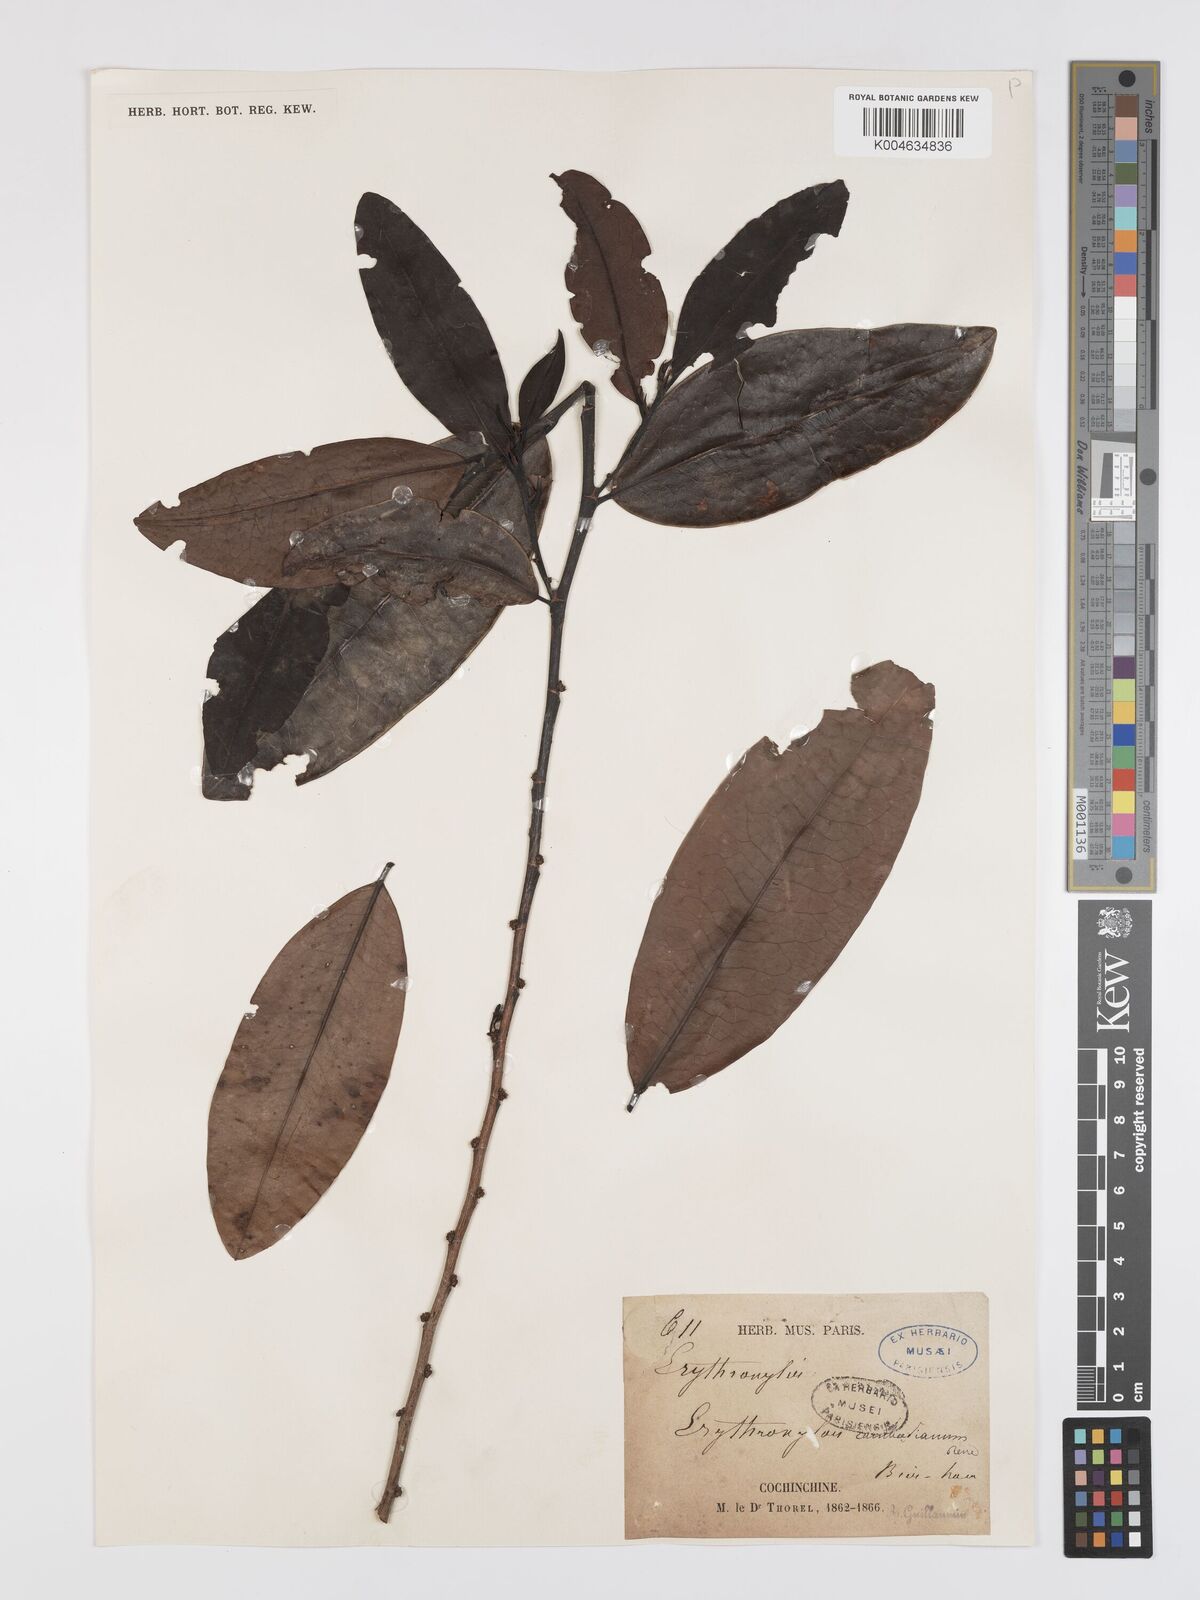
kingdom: Plantae
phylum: Tracheophyta
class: Magnoliopsida
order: Malpighiales
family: Erythroxylaceae
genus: Erythroxylum
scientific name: Erythroxylum cambodianum
